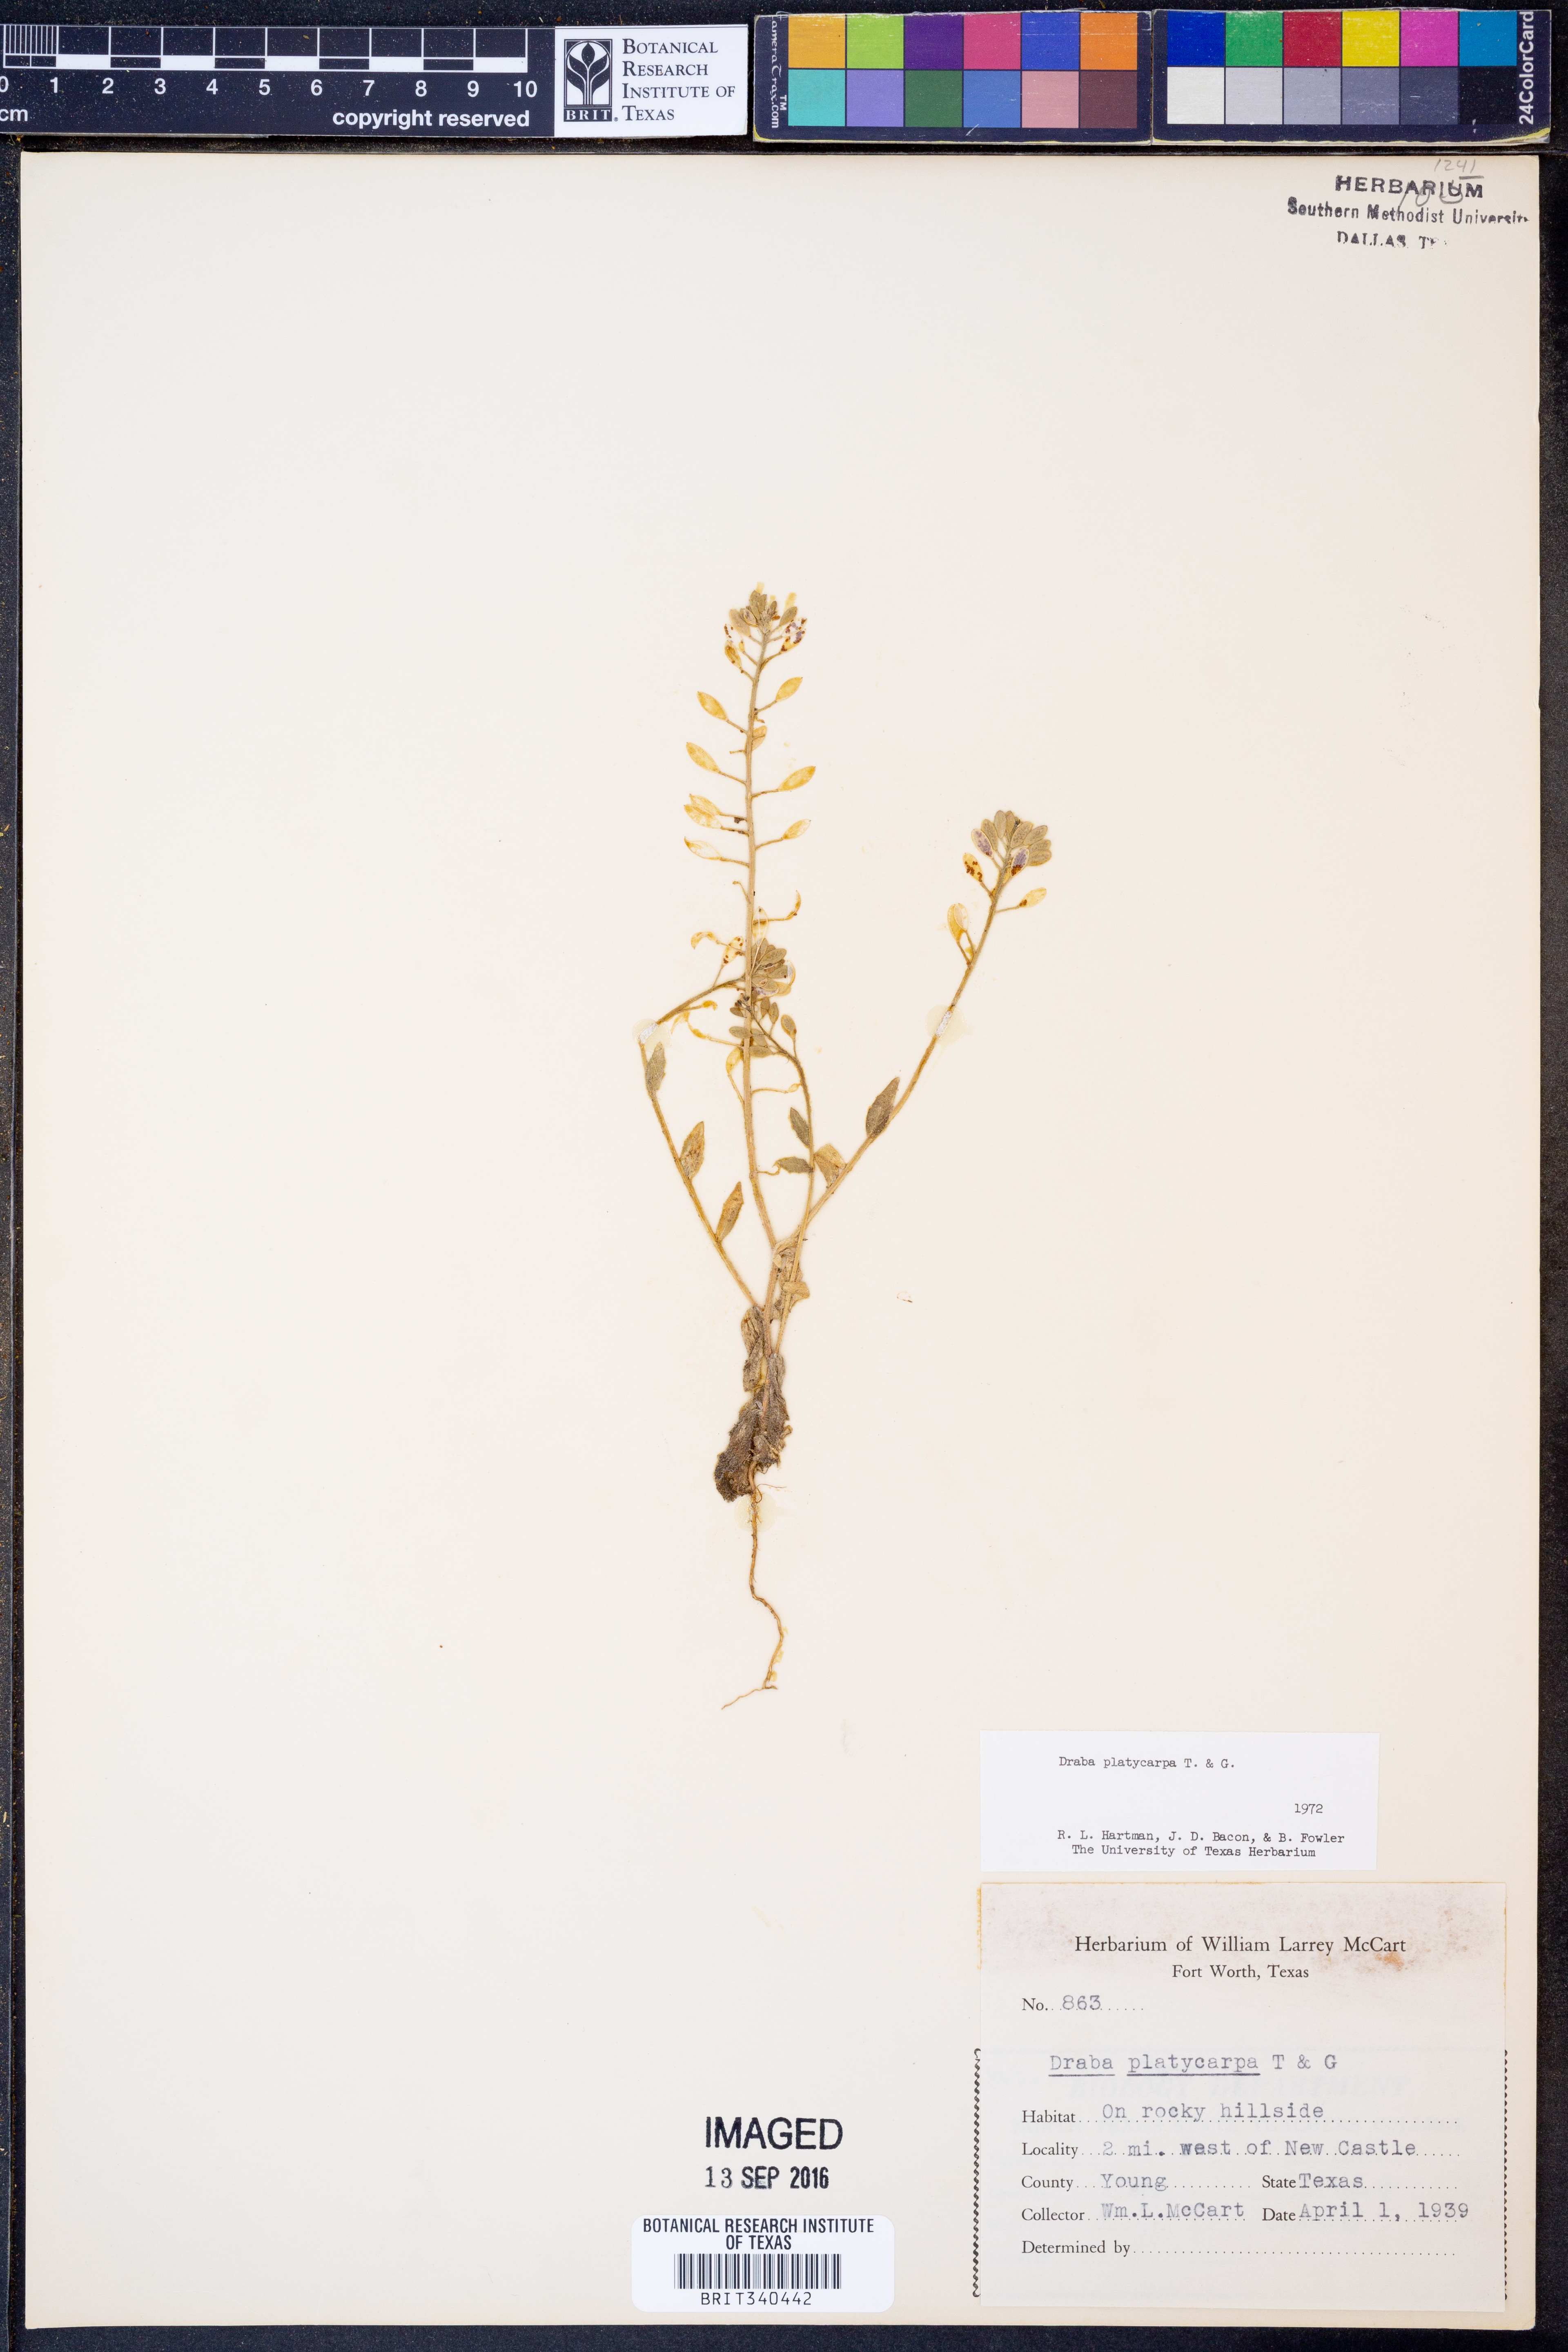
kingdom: Plantae
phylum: Tracheophyta
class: Magnoliopsida
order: Brassicales
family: Brassicaceae
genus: Tomostima
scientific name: Tomostima platycarpa
